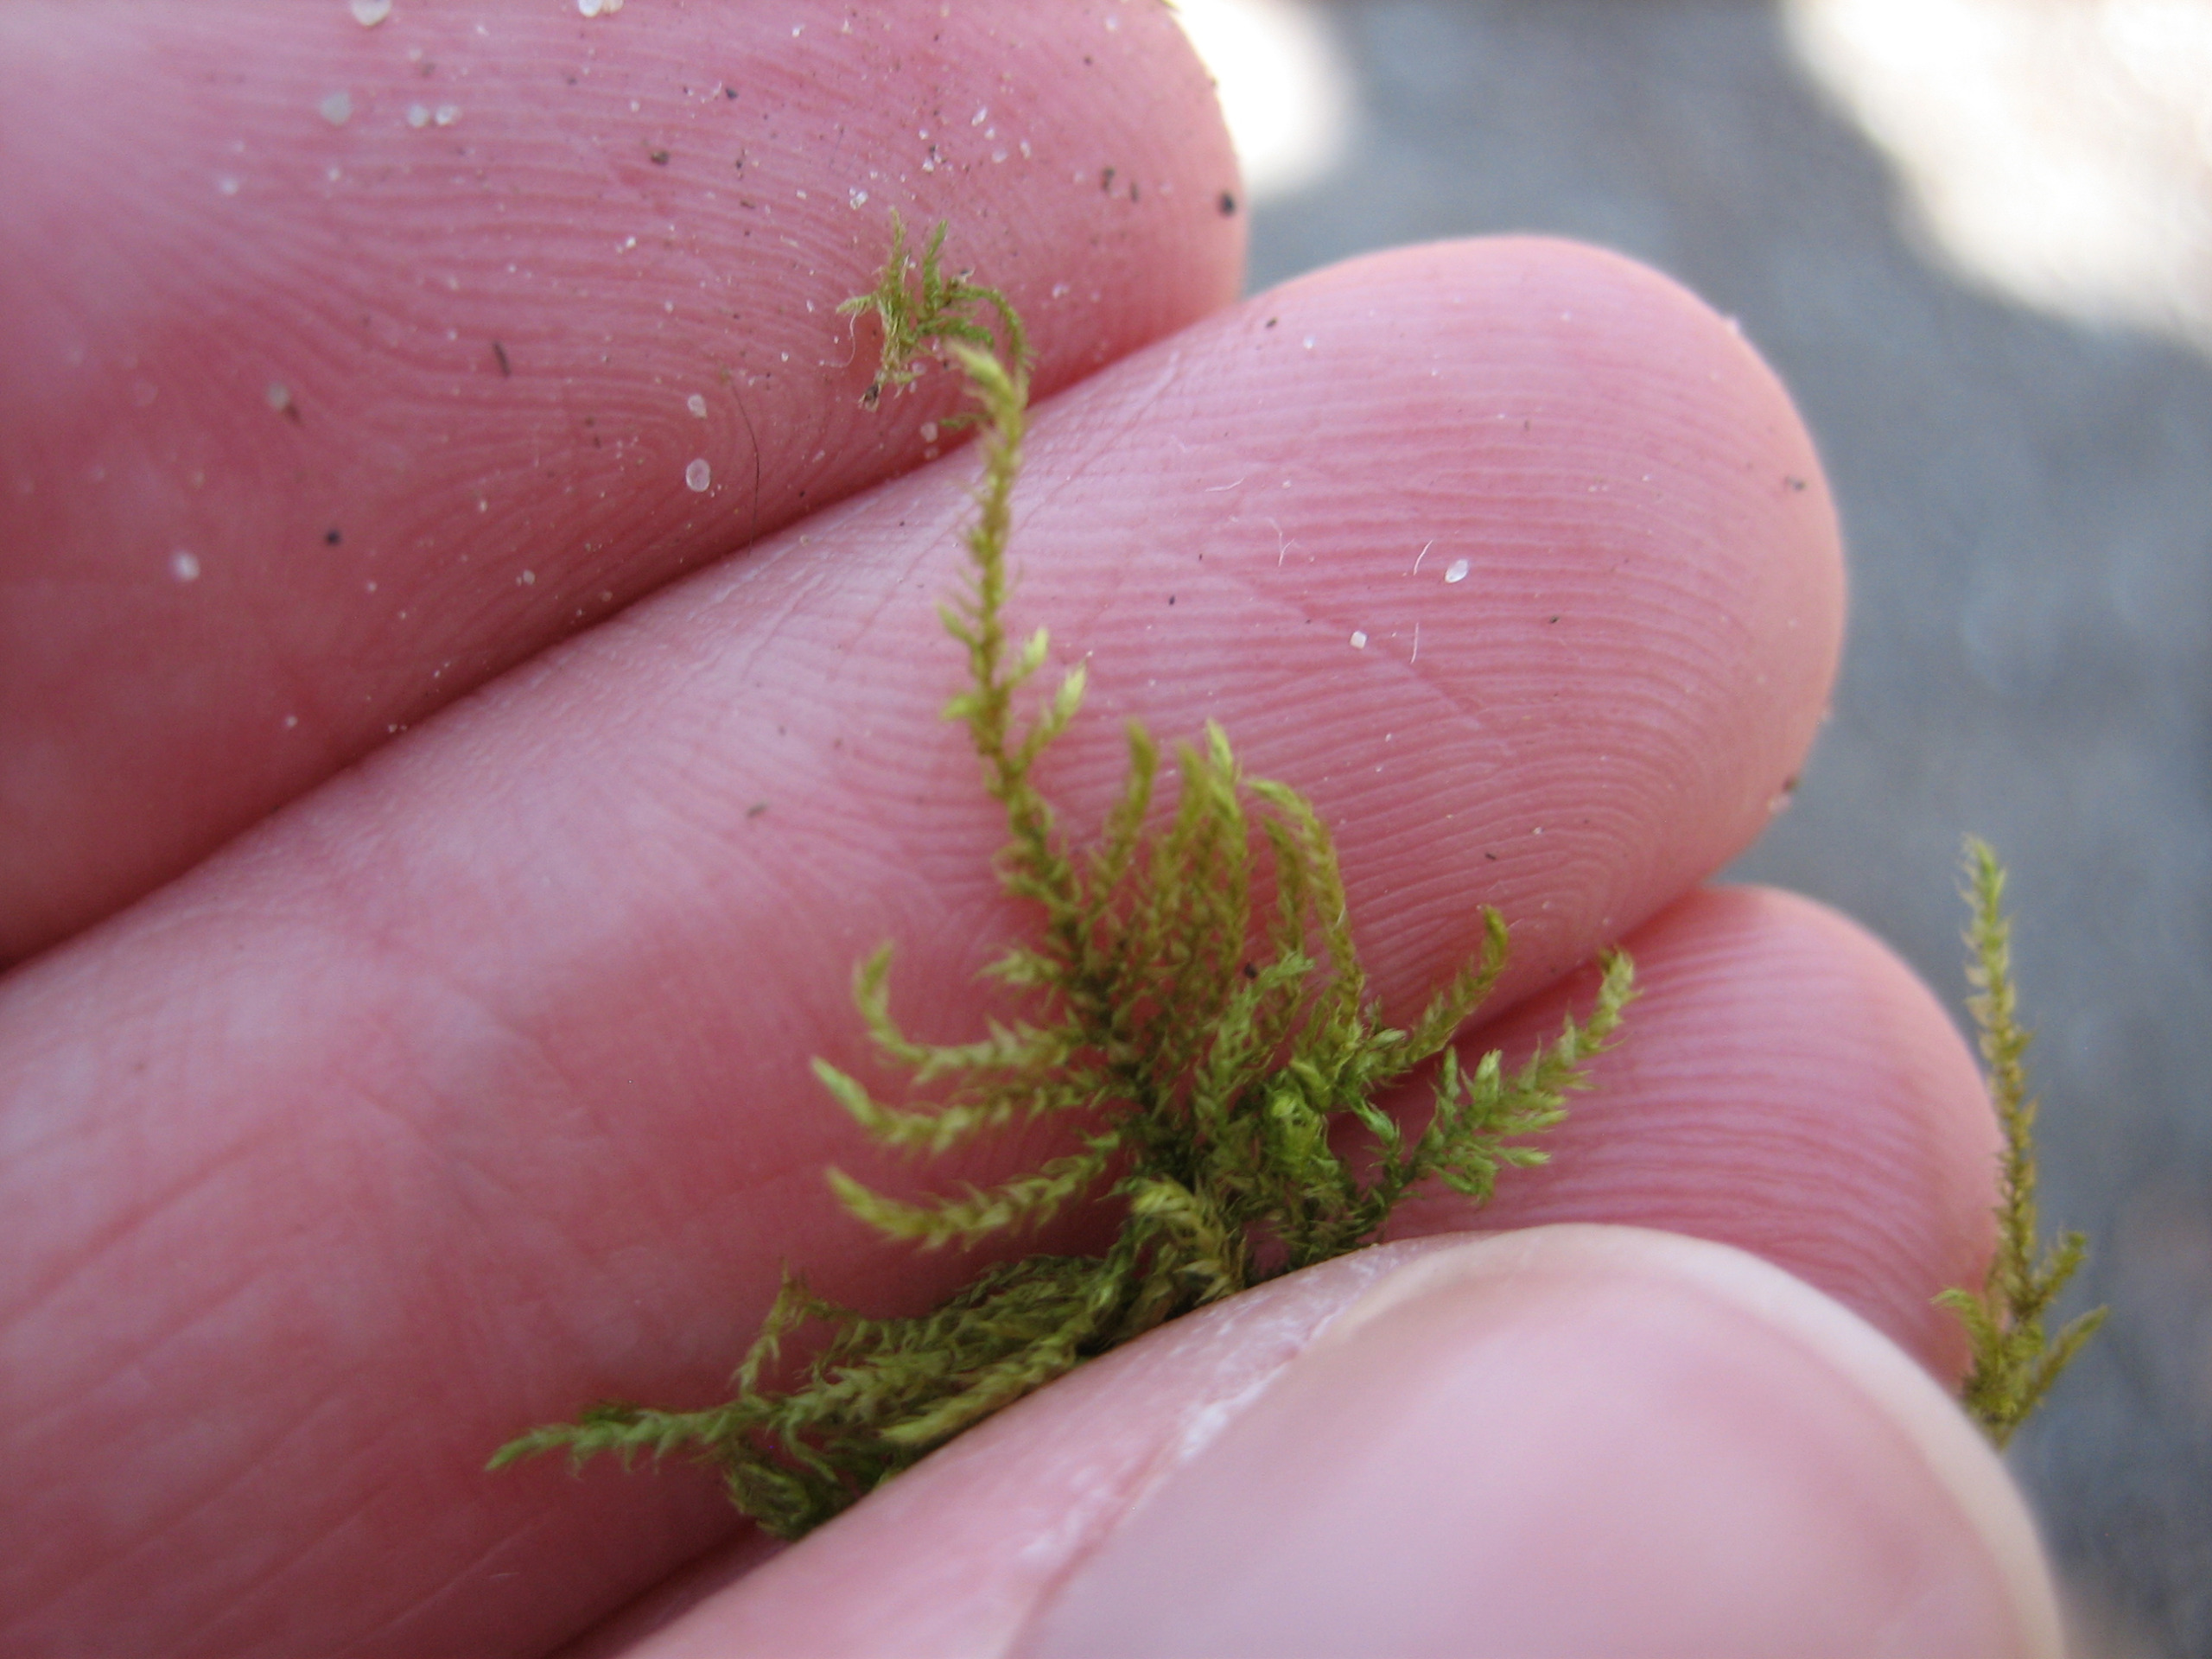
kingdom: Plantae
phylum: Bryophyta
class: Bryopsida
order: Hypnales
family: Brachytheciaceae
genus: Kindbergia
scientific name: Kindbergia praelonga
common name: Forskelligbladet vortetand
